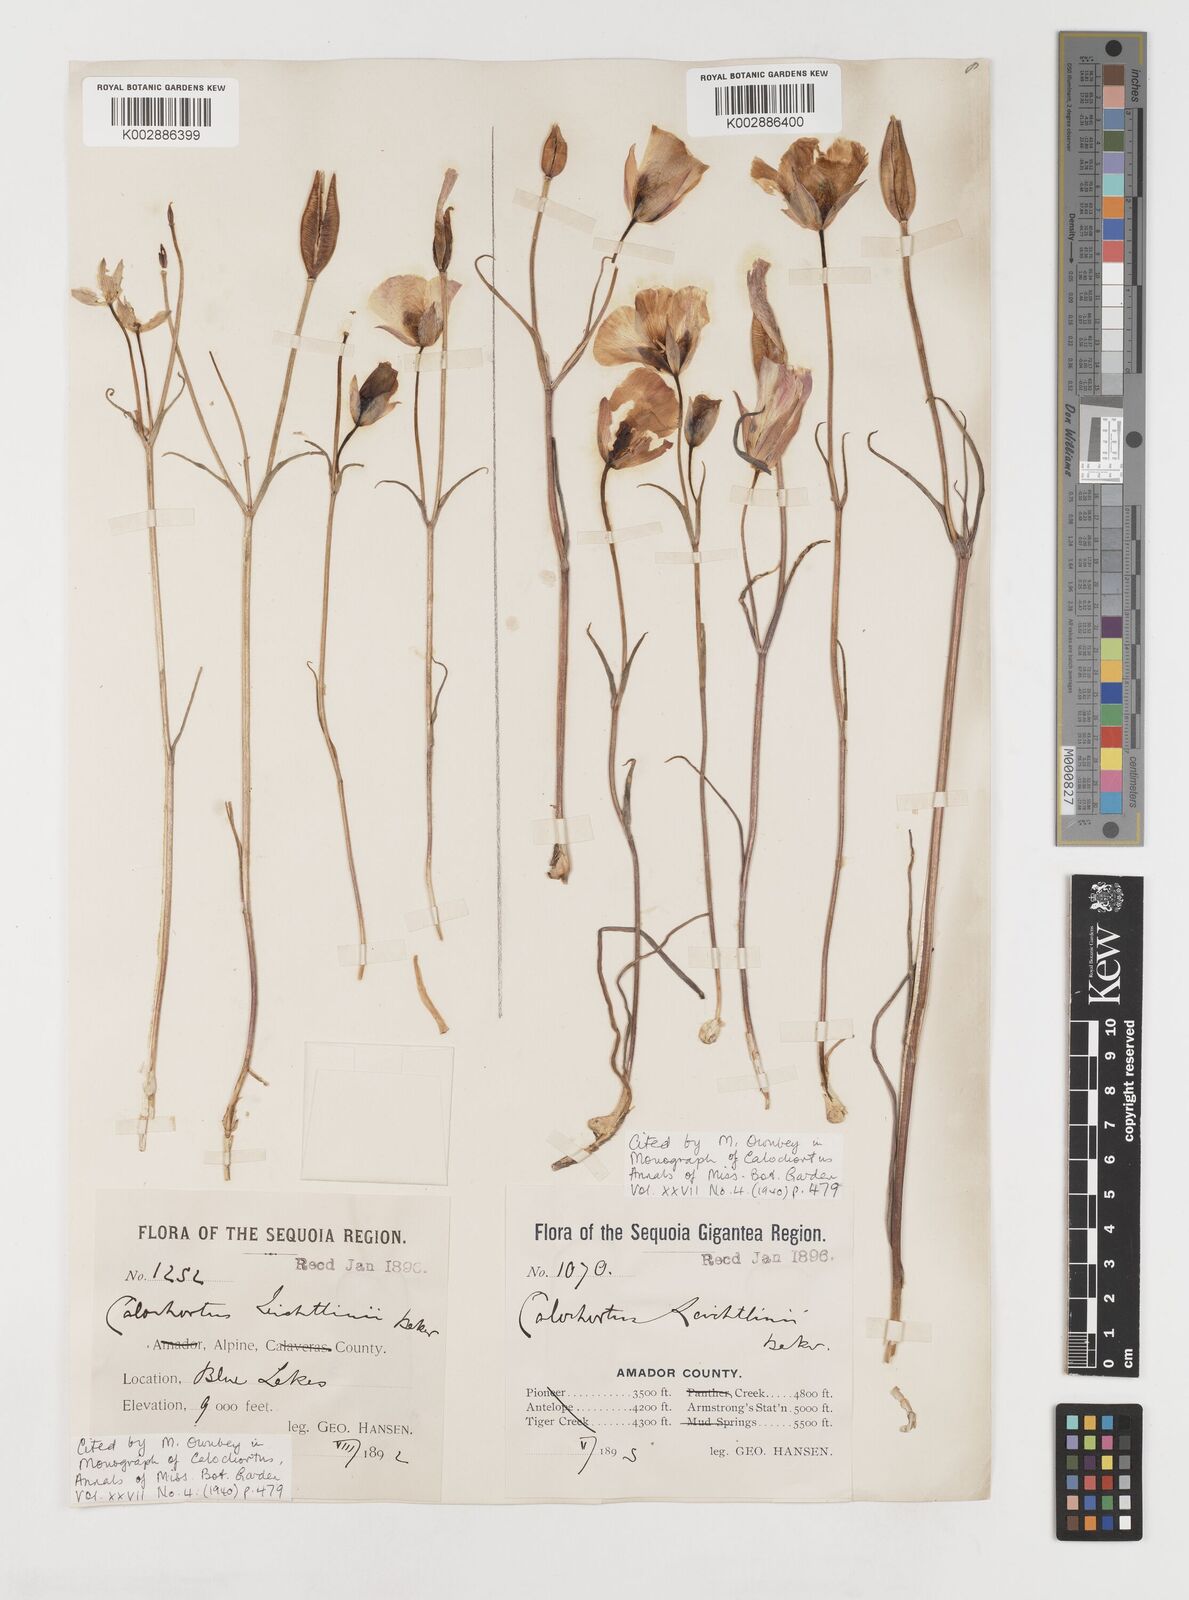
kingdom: Plantae
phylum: Tracheophyta
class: Liliopsida
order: Liliales
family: Liliaceae
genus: Calochortus
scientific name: Calochortus leichtlinii
